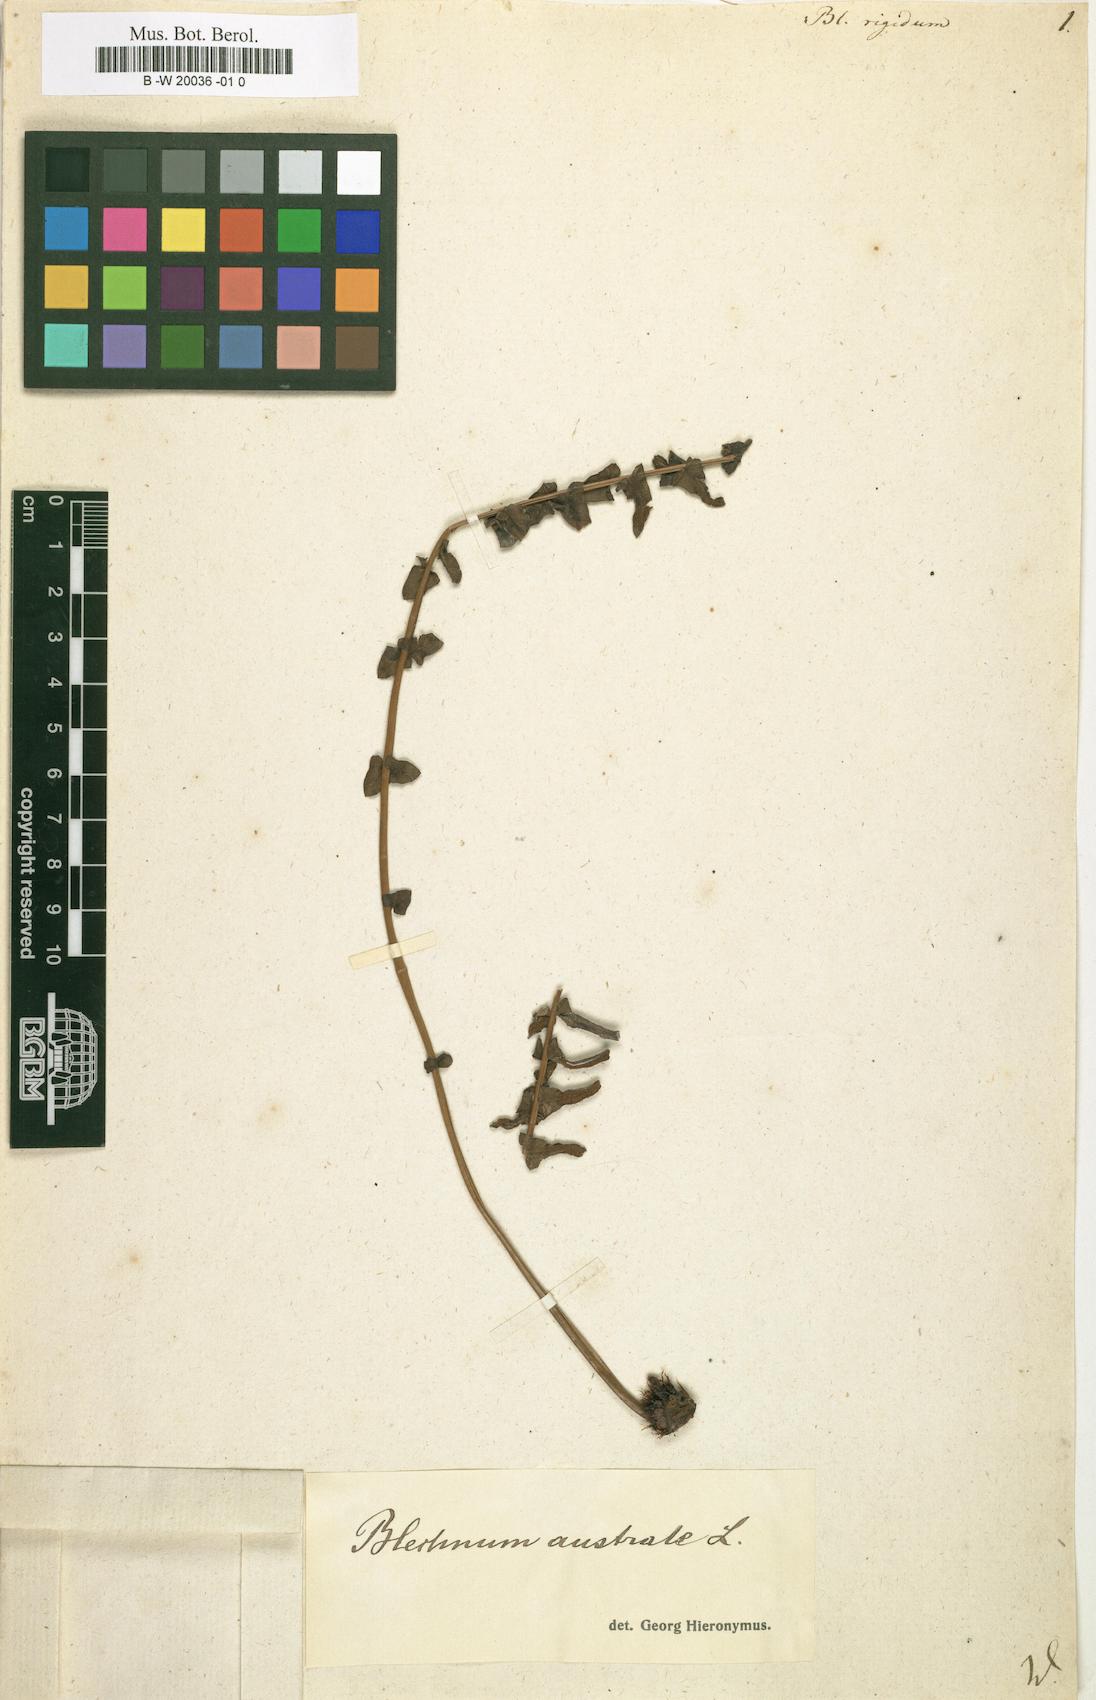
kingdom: Plantae
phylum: Tracheophyta
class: Polypodiopsida
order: Polypodiales
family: Blechnaceae
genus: Blechnum
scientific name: Blechnum australe
